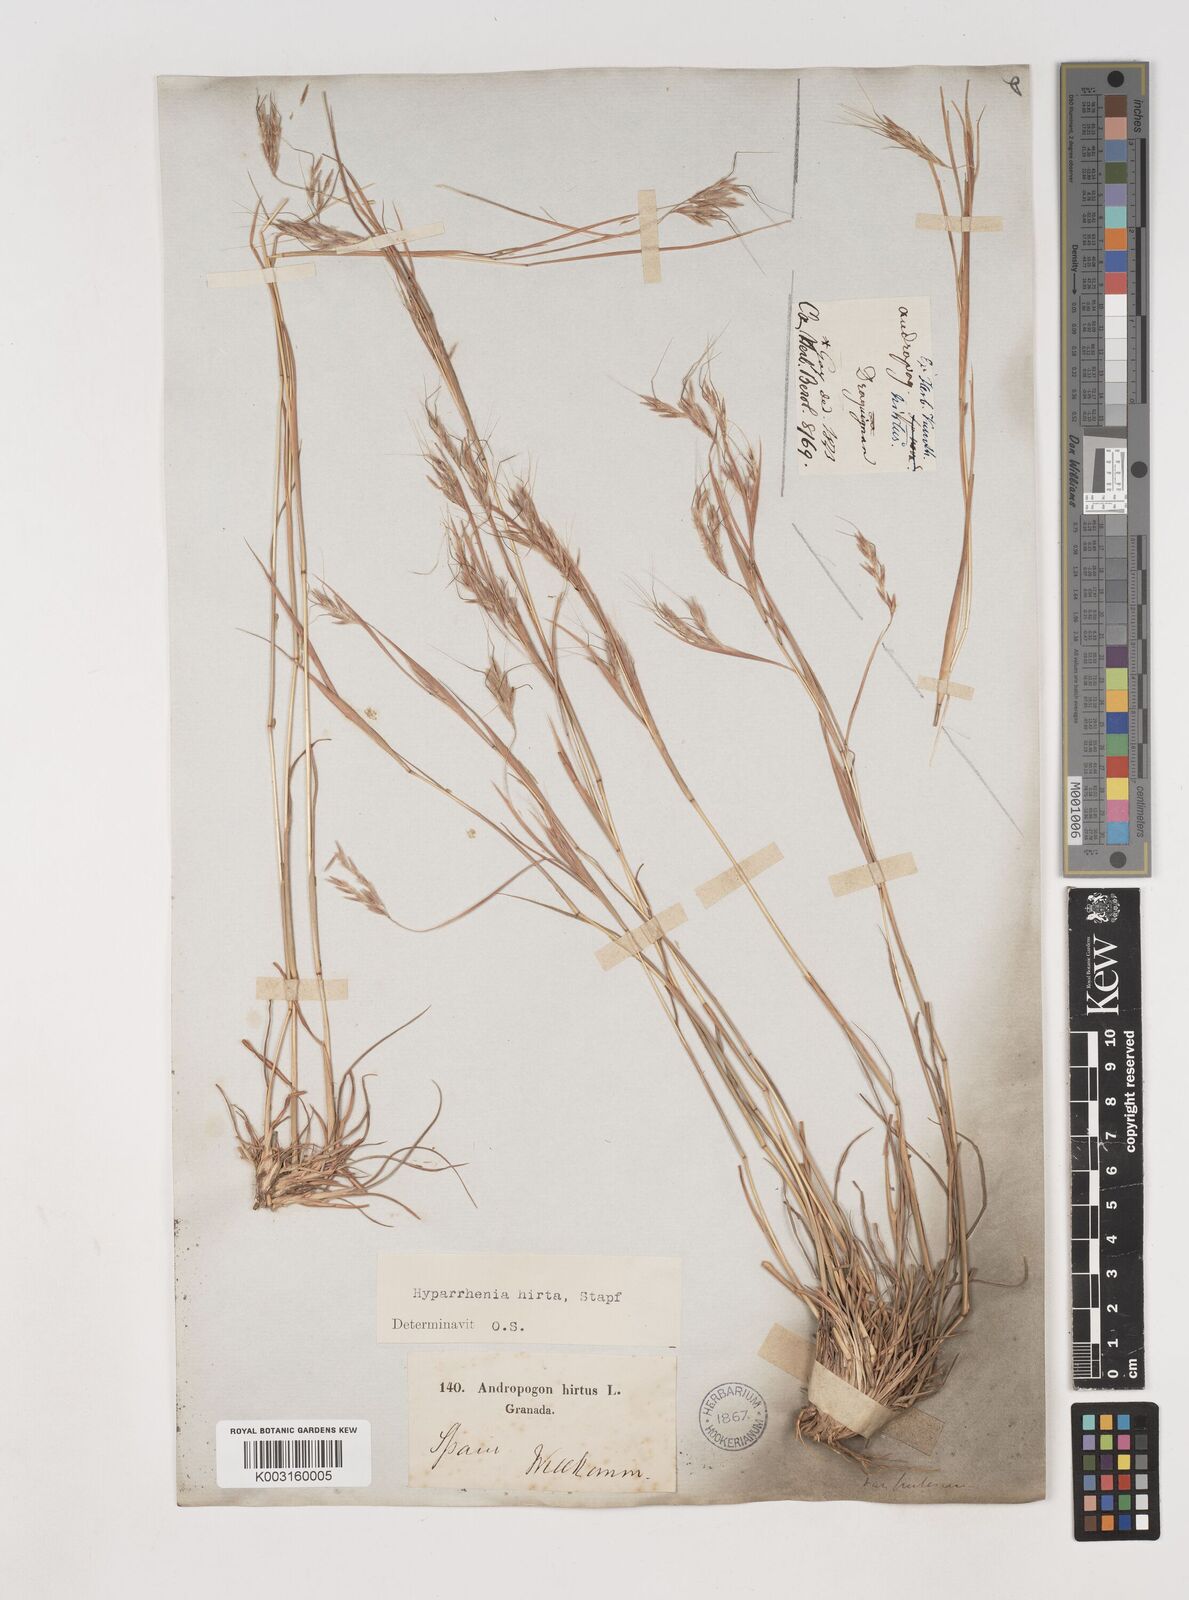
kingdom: Plantae
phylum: Tracheophyta
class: Liliopsida
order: Poales
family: Poaceae
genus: Hyparrhenia
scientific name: Hyparrhenia hirta
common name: Thatching grass
